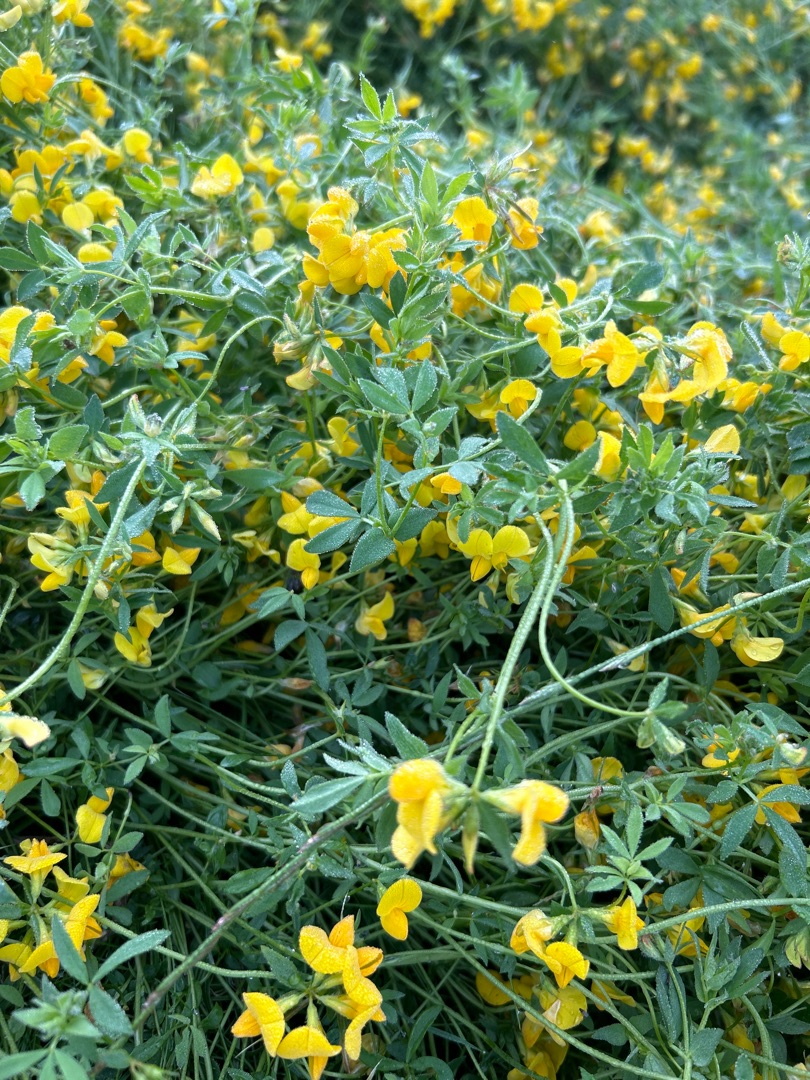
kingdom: Plantae
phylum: Tracheophyta
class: Magnoliopsida
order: Fabales
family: Fabaceae
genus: Lotus
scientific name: Lotus corniculatus
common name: Almindelig kællingetand
